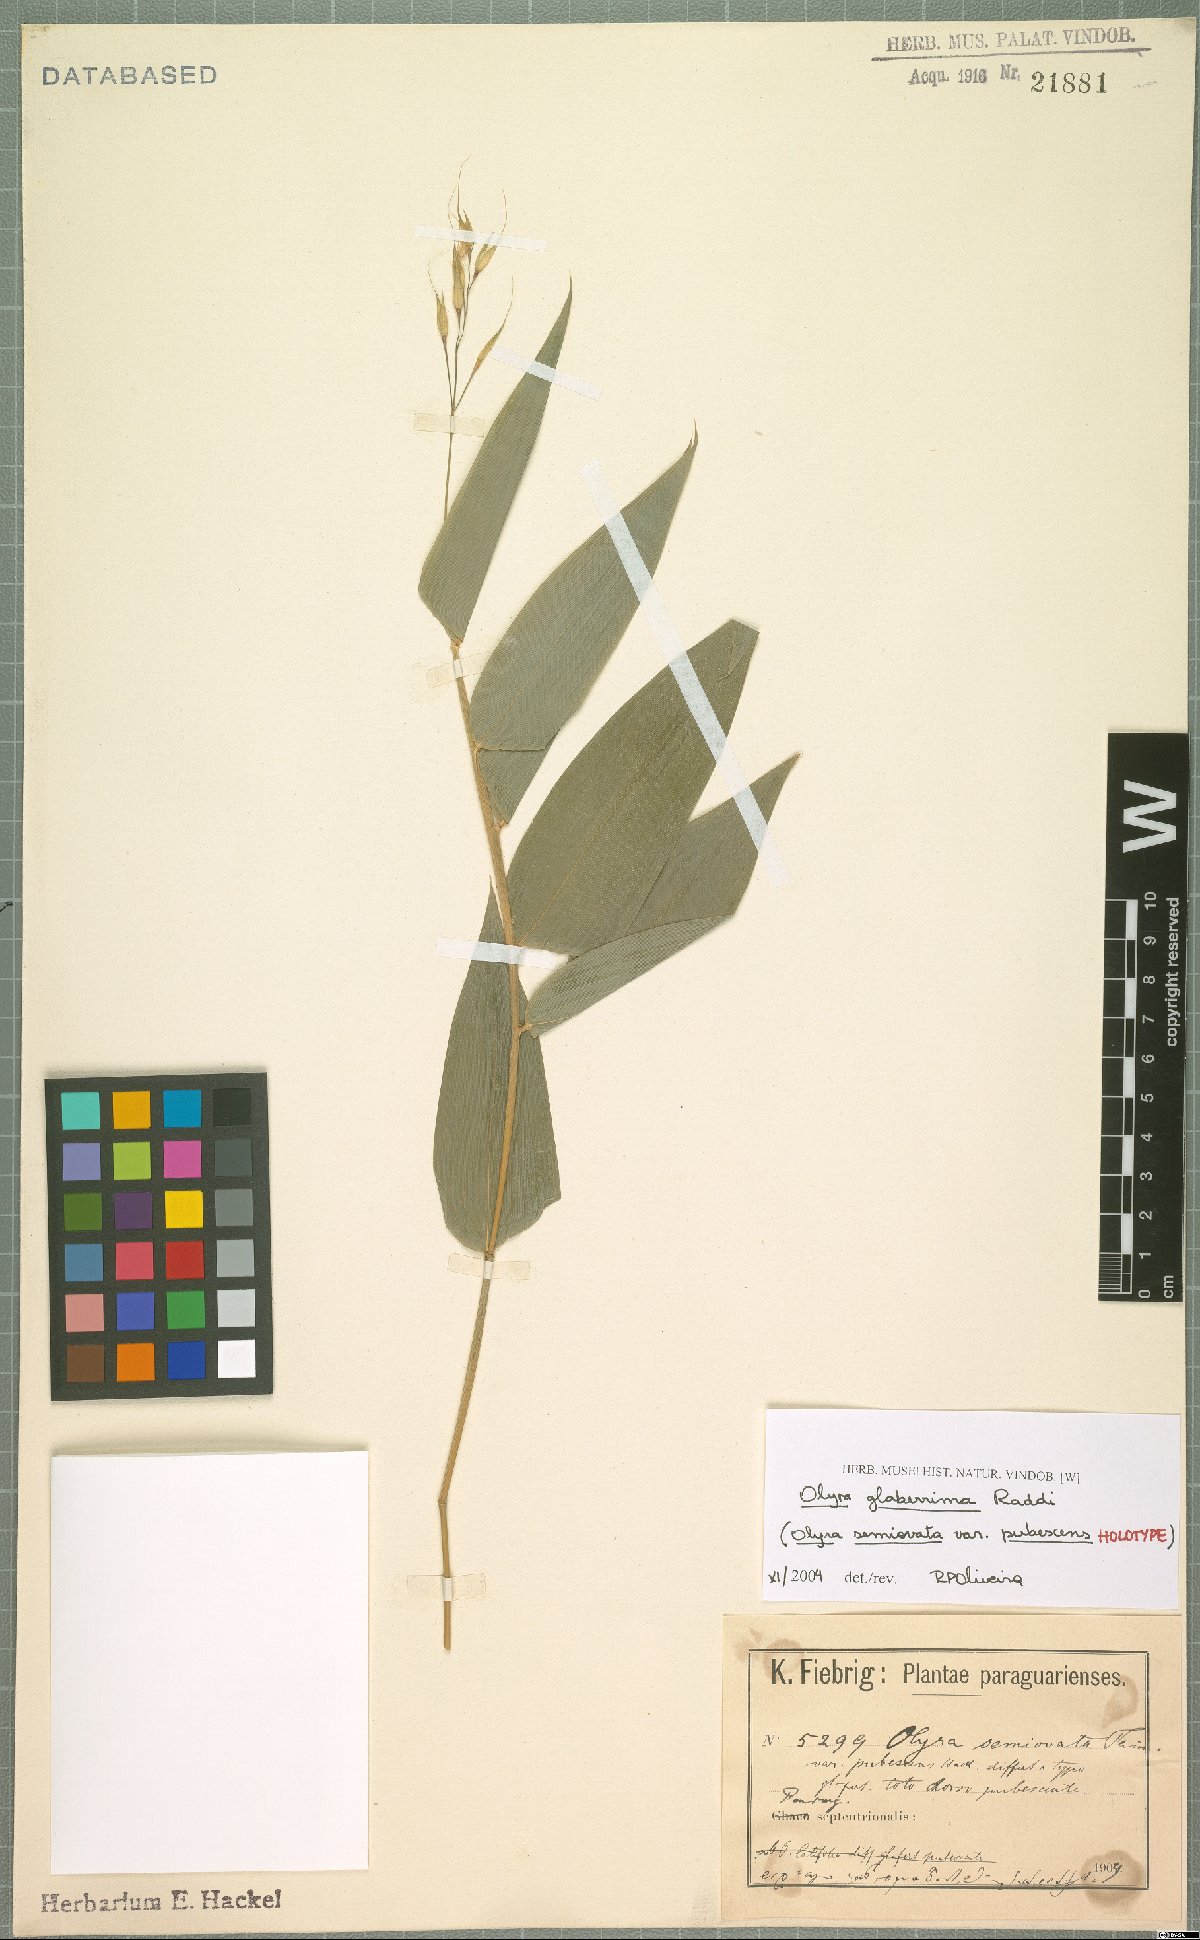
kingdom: Plantae
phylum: Tracheophyta
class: Liliopsida
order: Poales
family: Poaceae
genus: Olyra
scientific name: Olyra glaberrima
